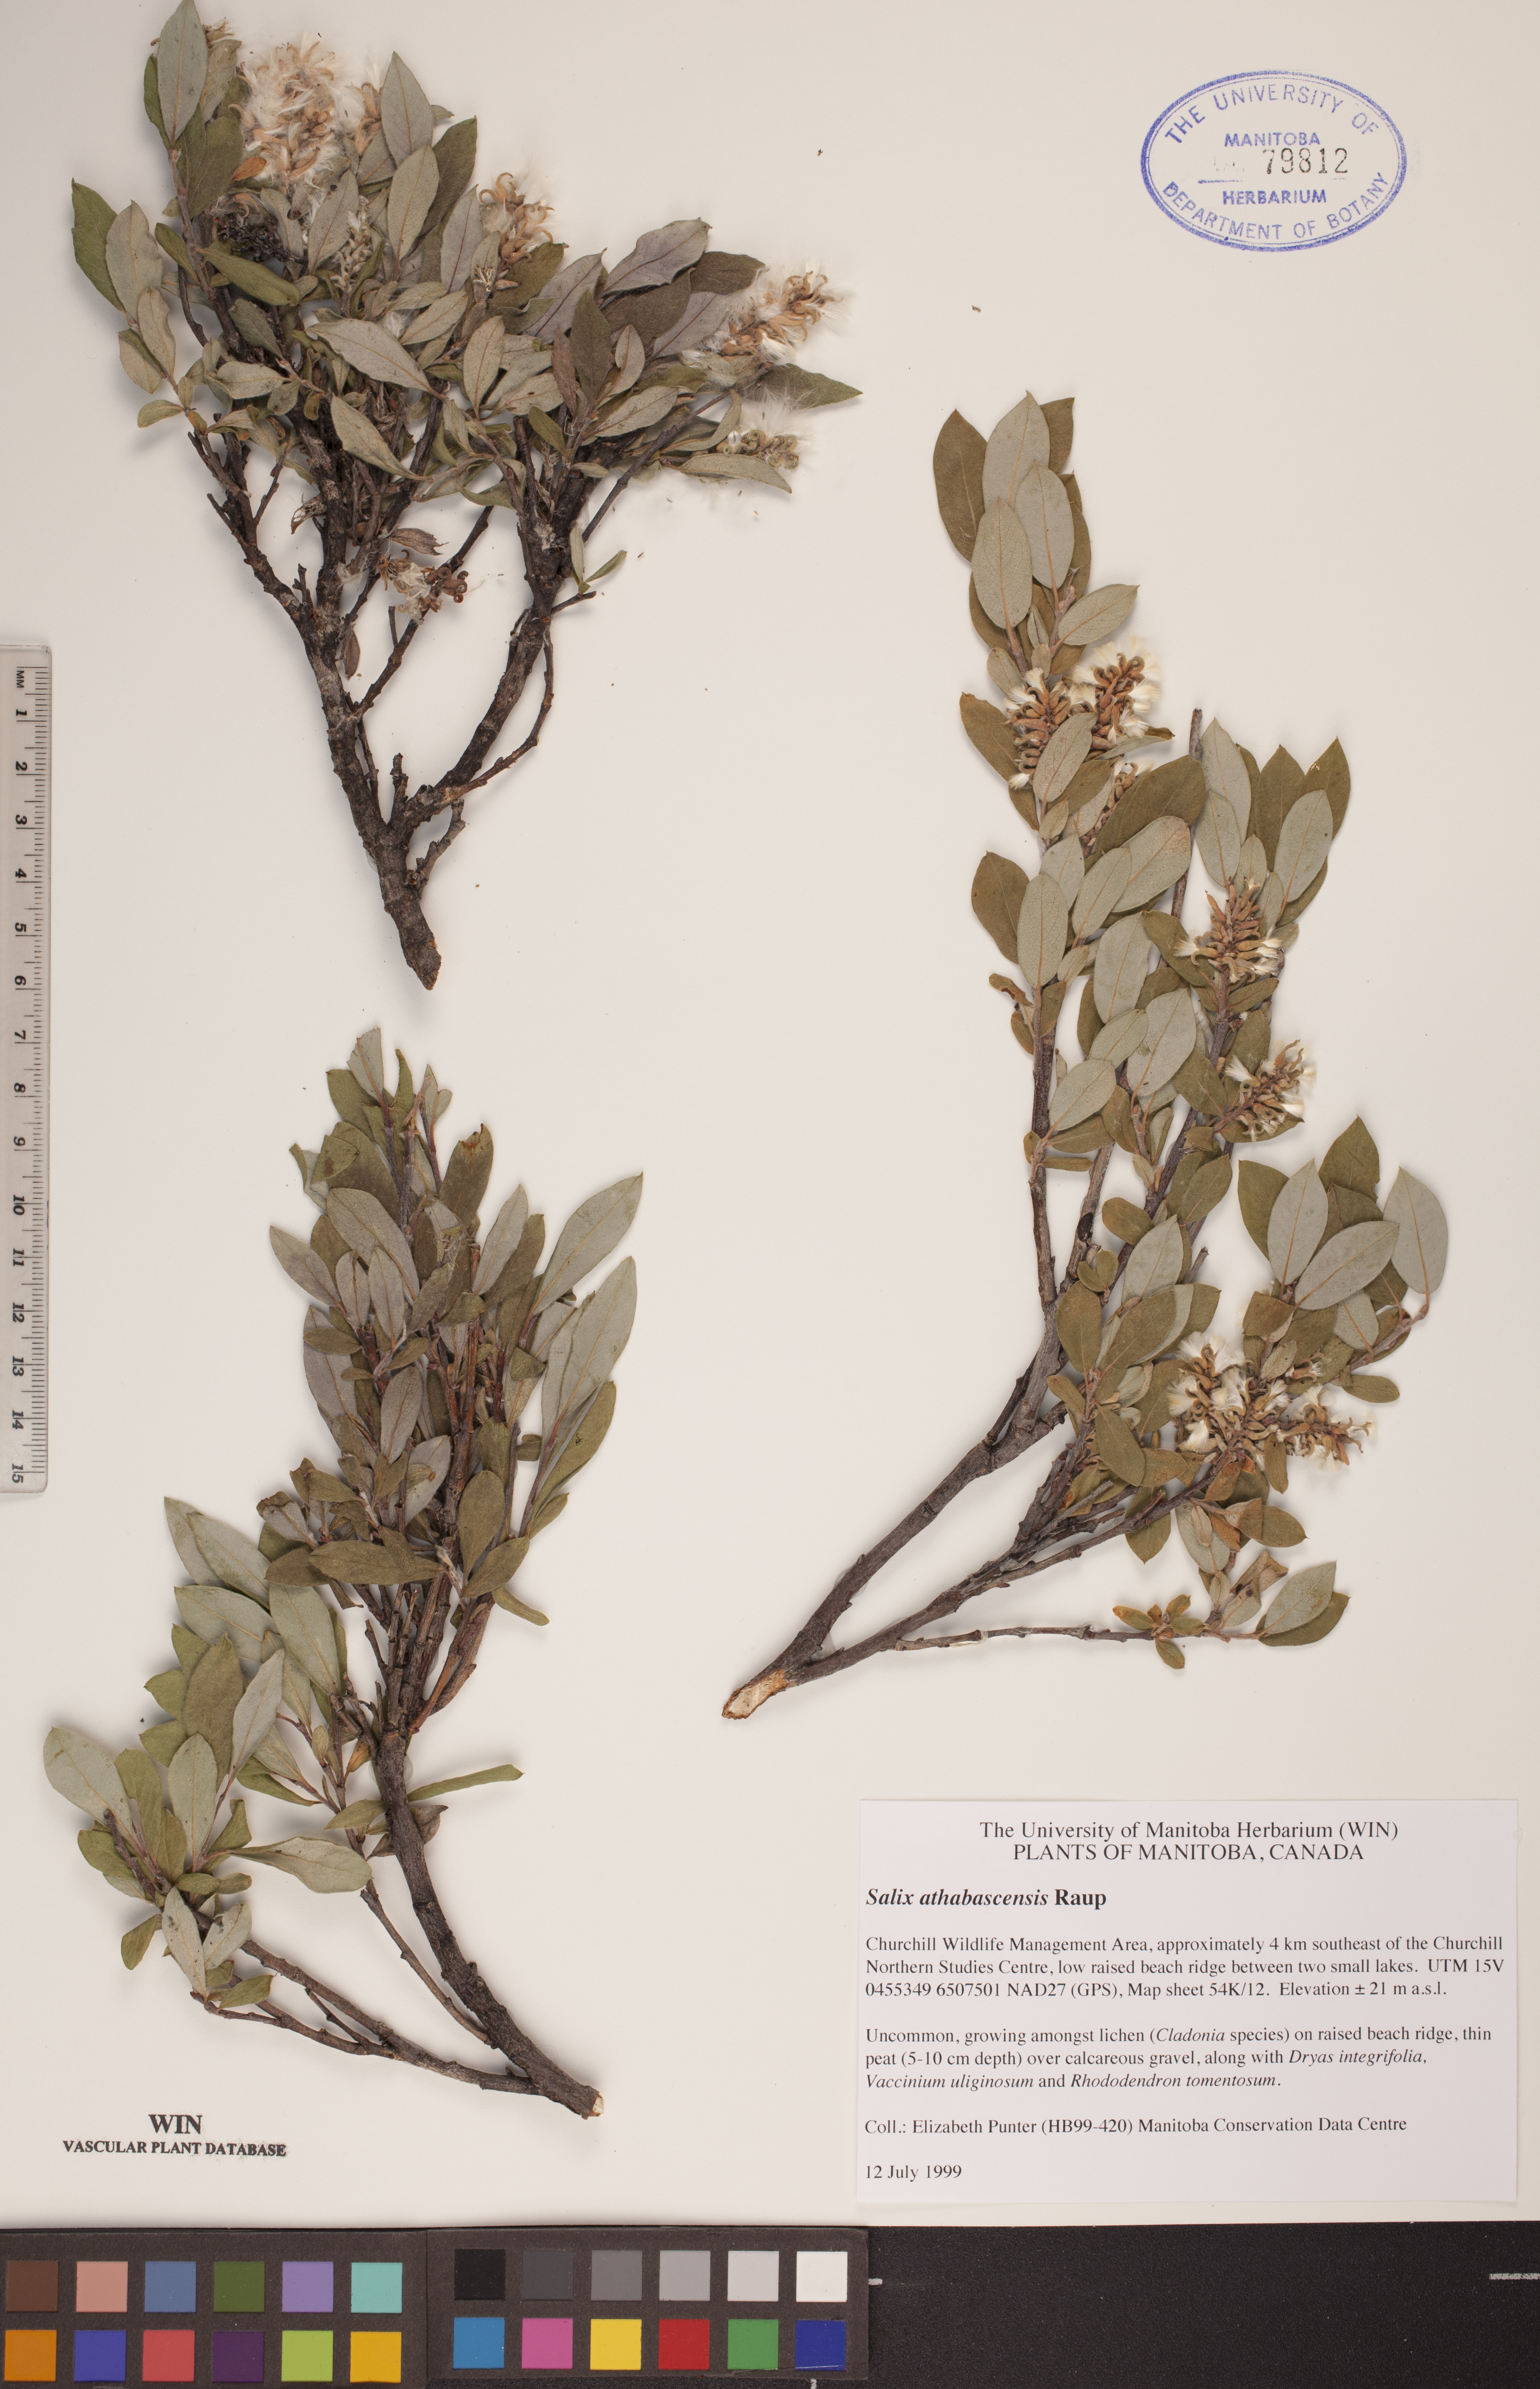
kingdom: Plantae
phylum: Tracheophyta
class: Magnoliopsida
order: Malpighiales
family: Salicaceae
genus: Salix
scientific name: Salix athabascensis
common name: Athabasca willow
